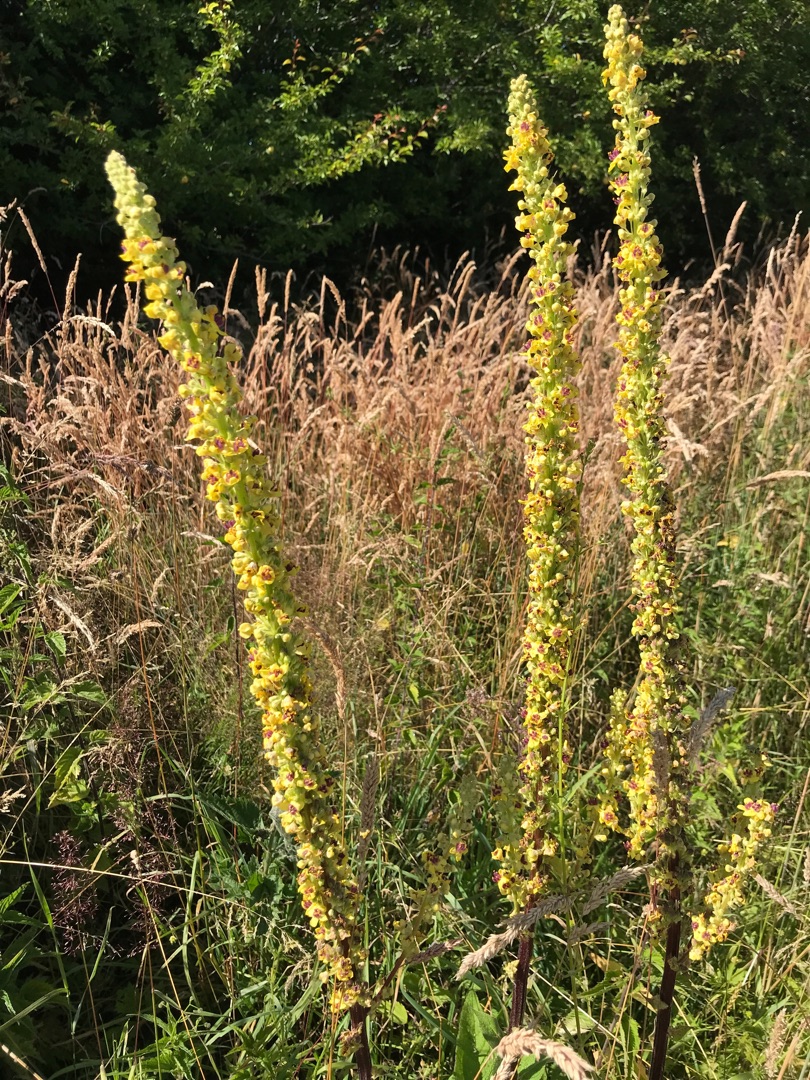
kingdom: Plantae
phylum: Tracheophyta
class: Magnoliopsida
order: Lamiales
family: Scrophulariaceae
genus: Verbascum
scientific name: Verbascum nigrum
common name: Mørk kongelys
